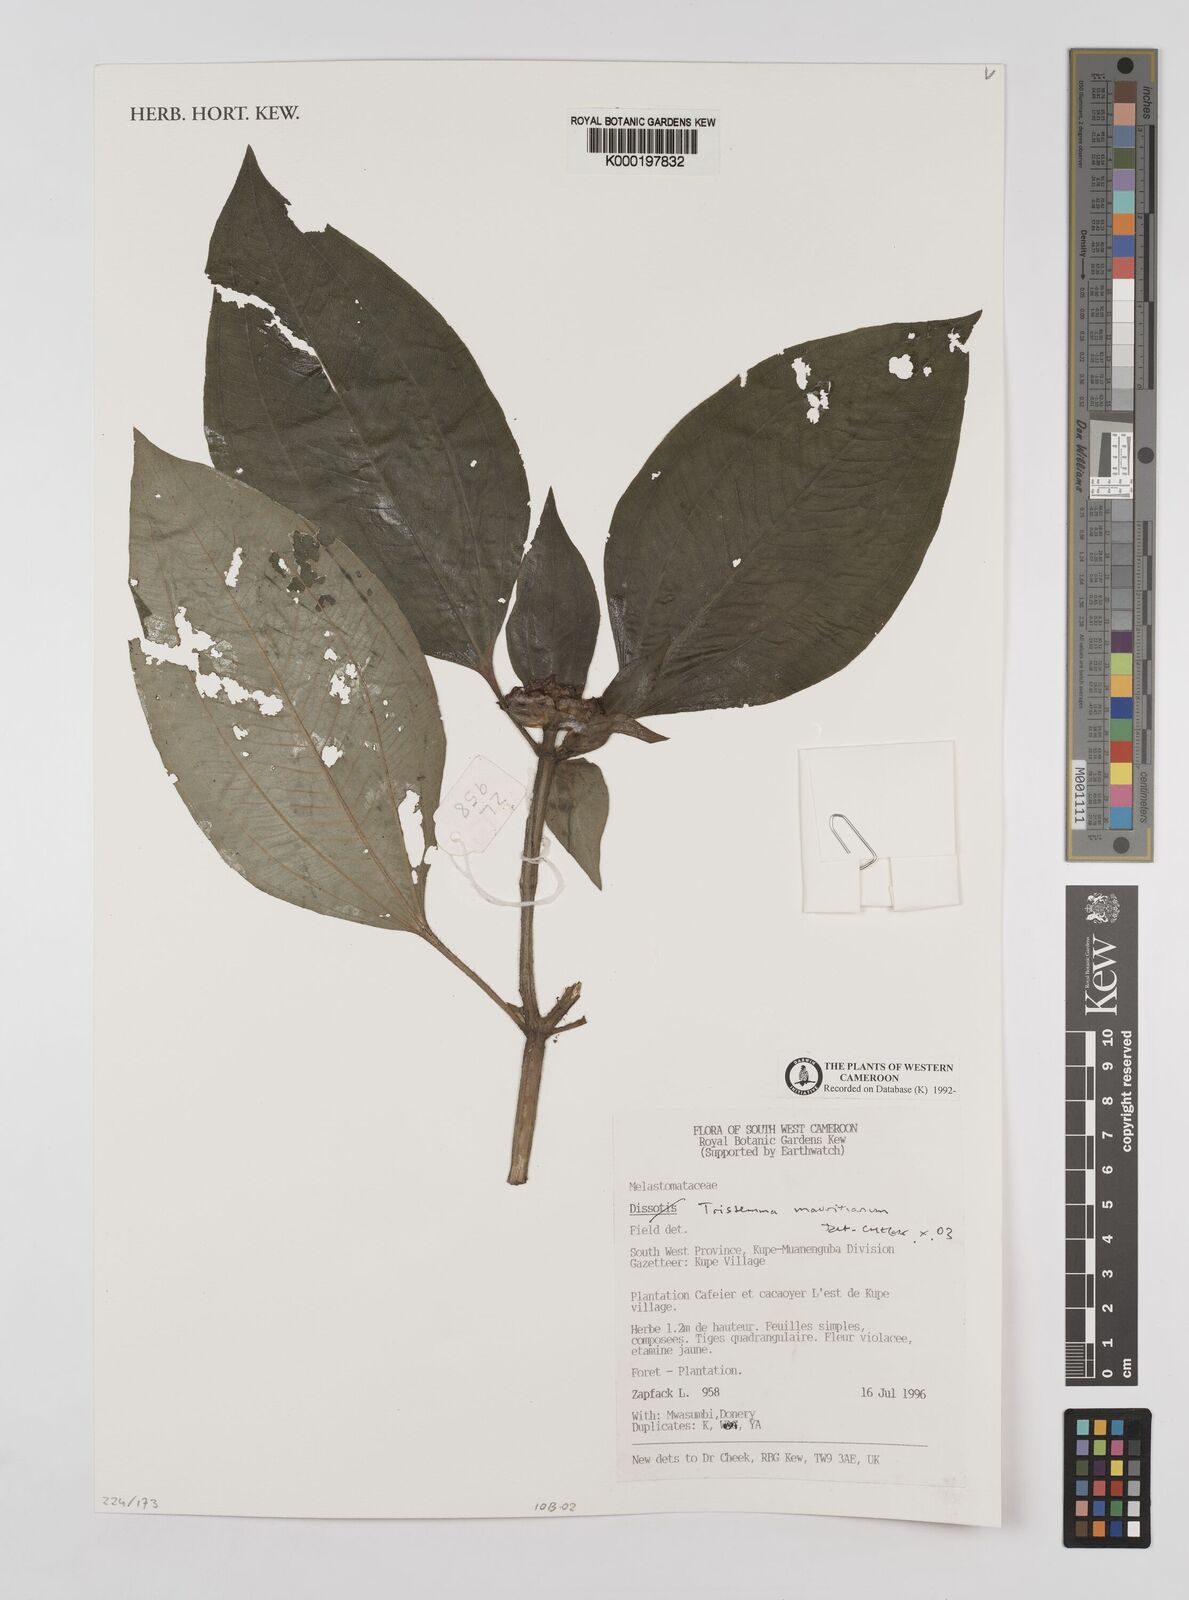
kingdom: Plantae
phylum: Tracheophyta
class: Magnoliopsida
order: Myrtales
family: Melastomataceae
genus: Tristemma
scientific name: Tristemma
